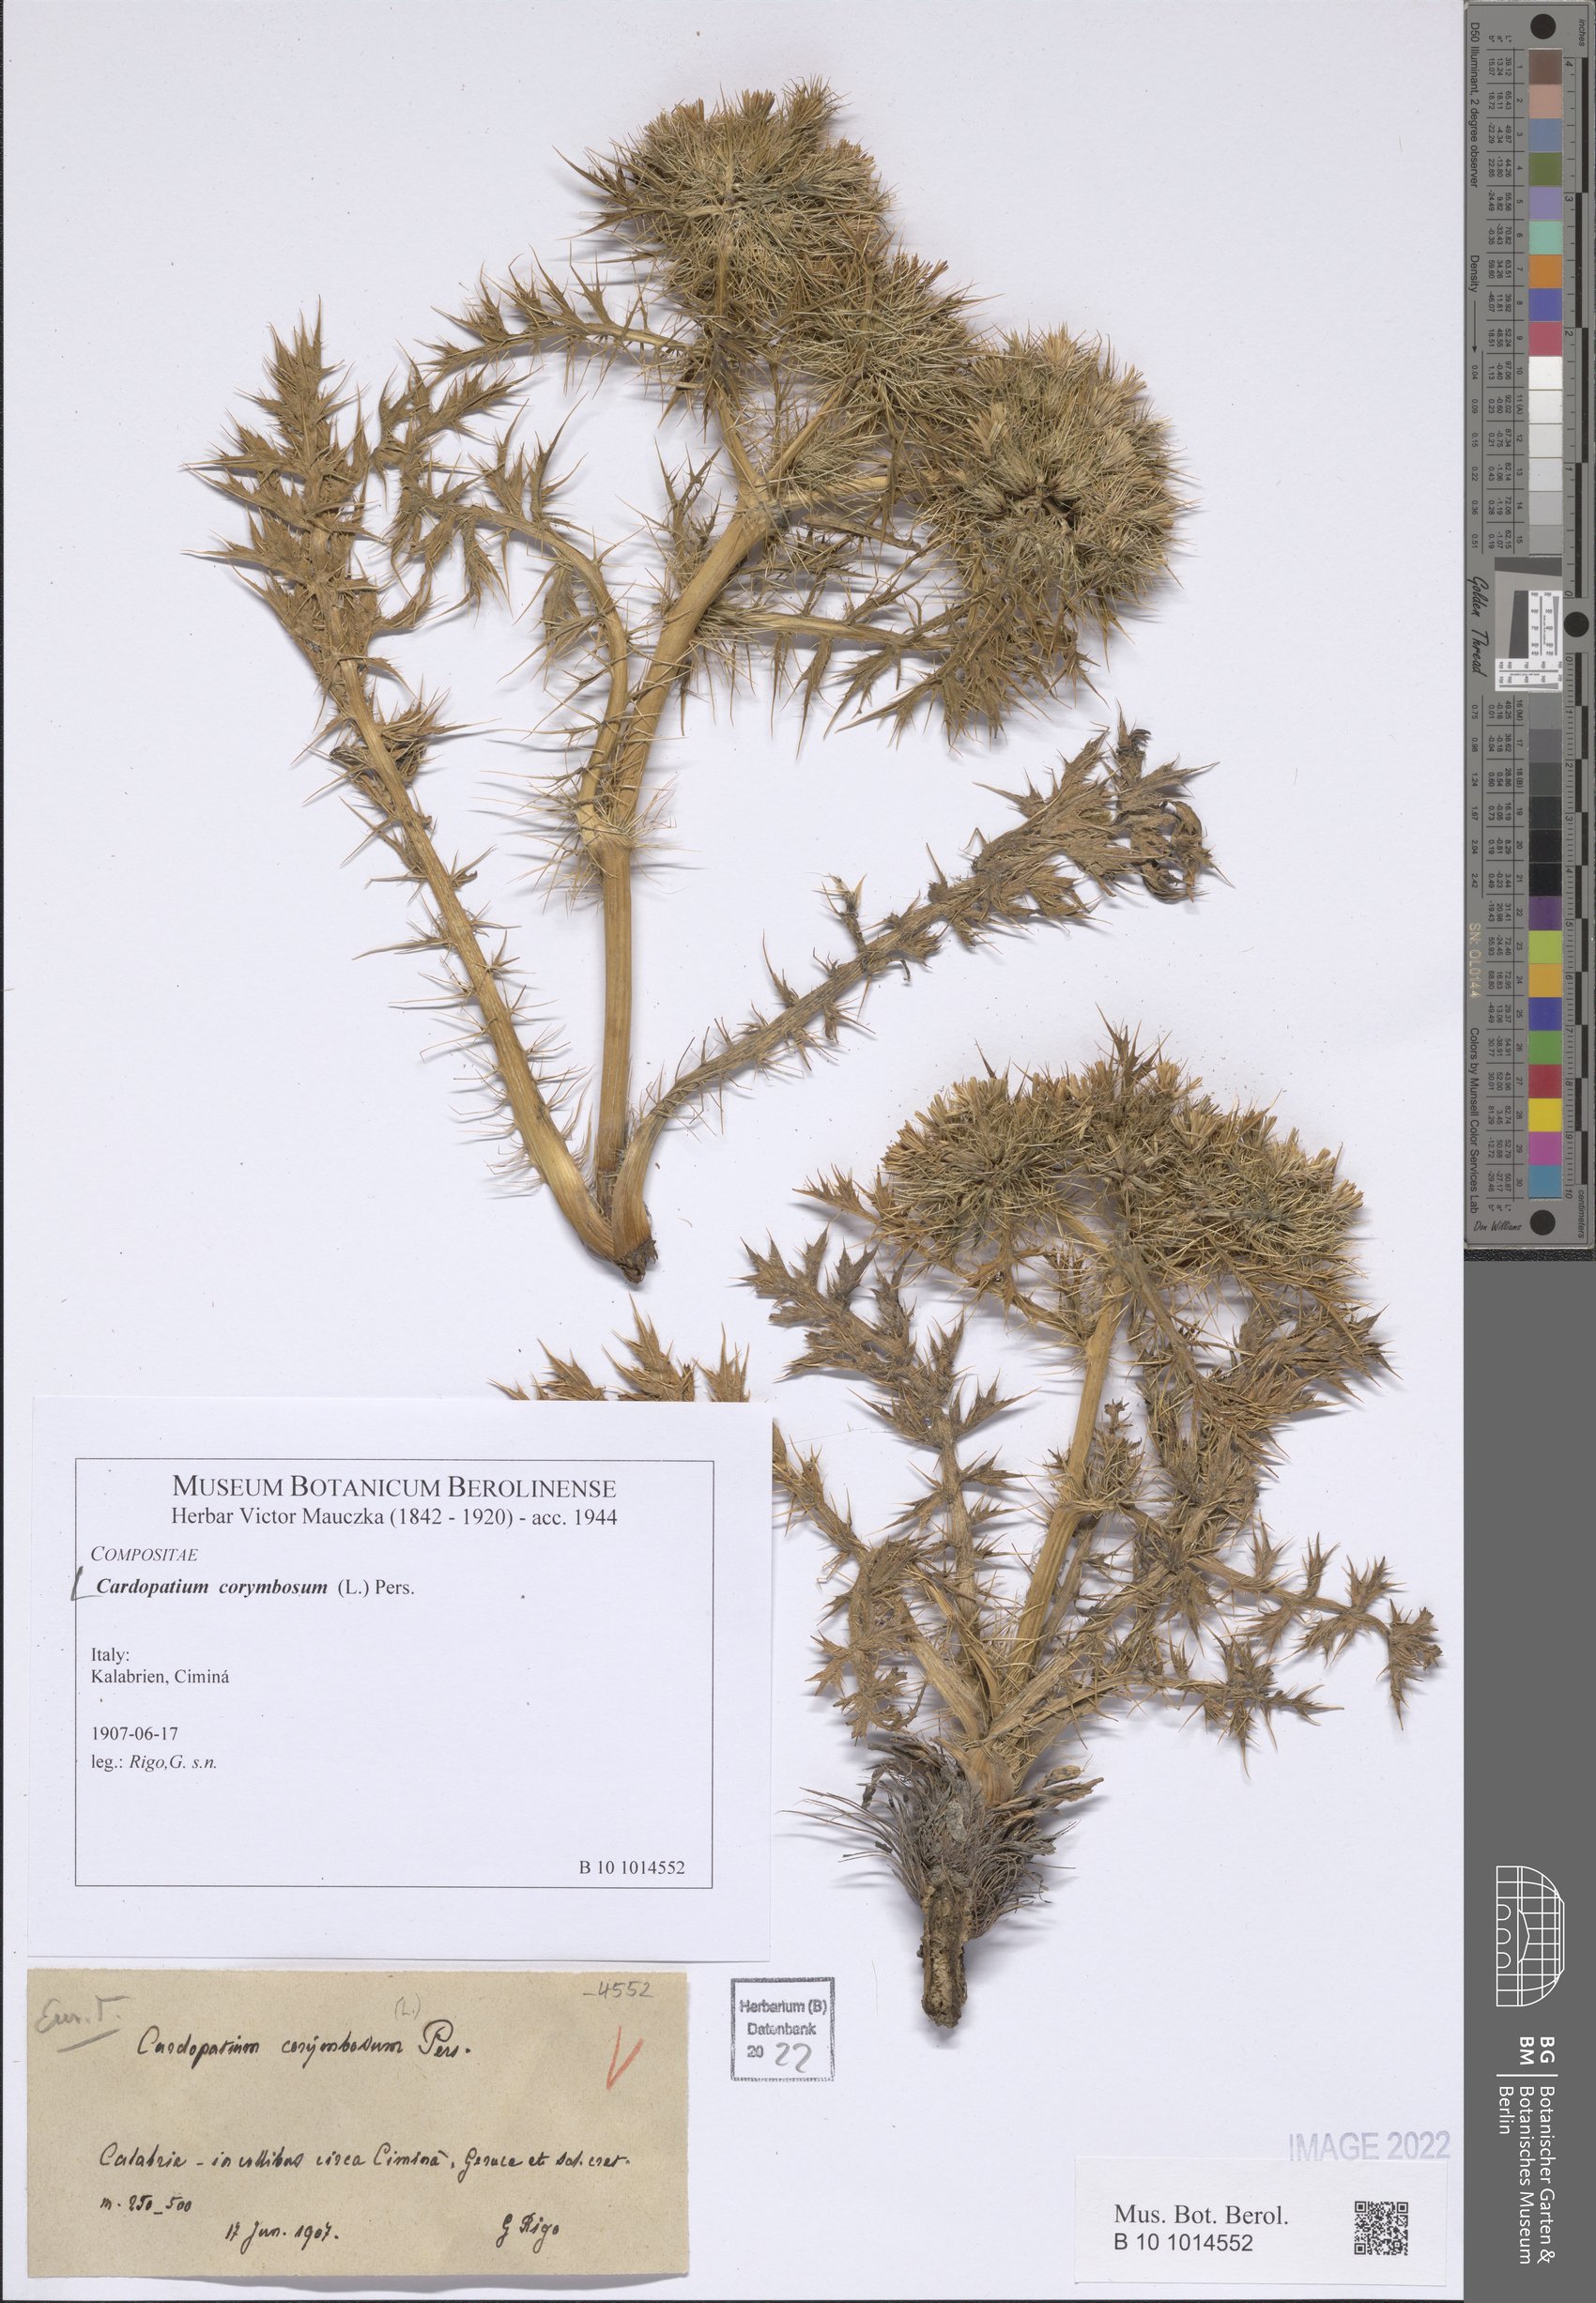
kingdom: Plantae
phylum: Tracheophyta
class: Magnoliopsida
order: Asterales
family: Asteraceae
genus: Cardopatium
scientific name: Cardopatium corymbosum
